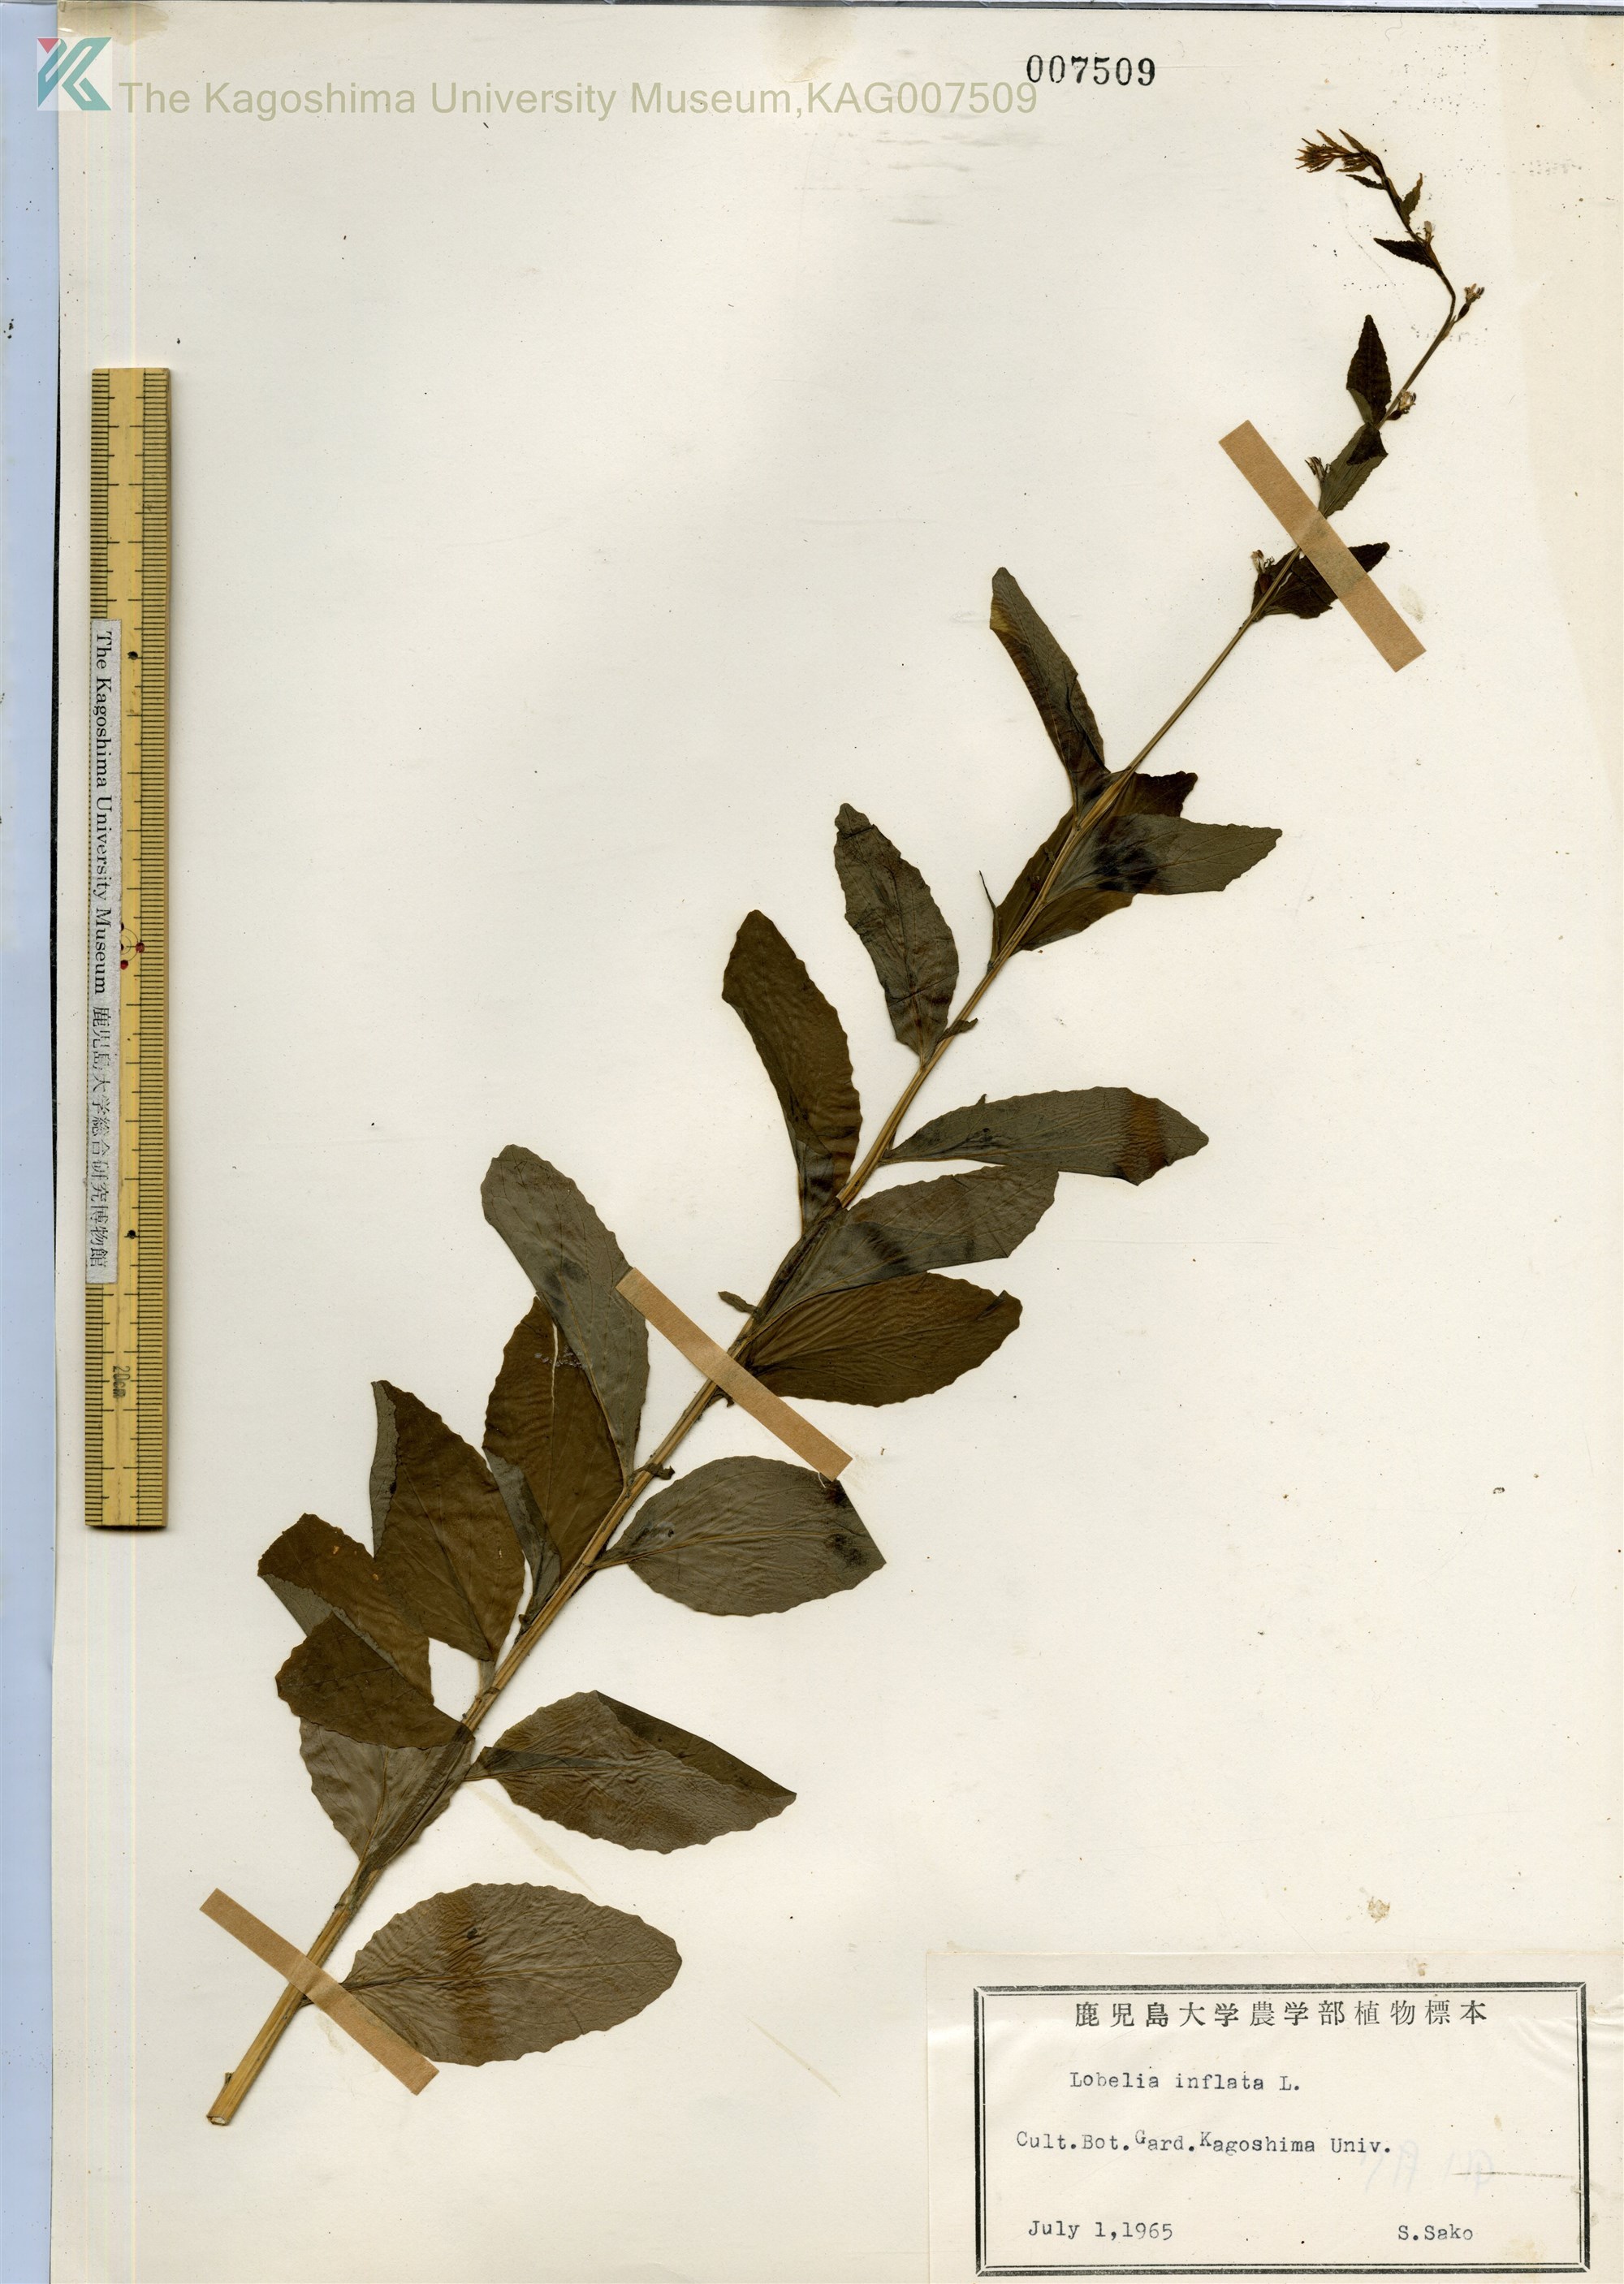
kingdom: Plantae
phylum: Tracheophyta
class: Magnoliopsida
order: Asterales
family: Campanulaceae
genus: Lobelia
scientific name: Lobelia inflata
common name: Indian tobacco
